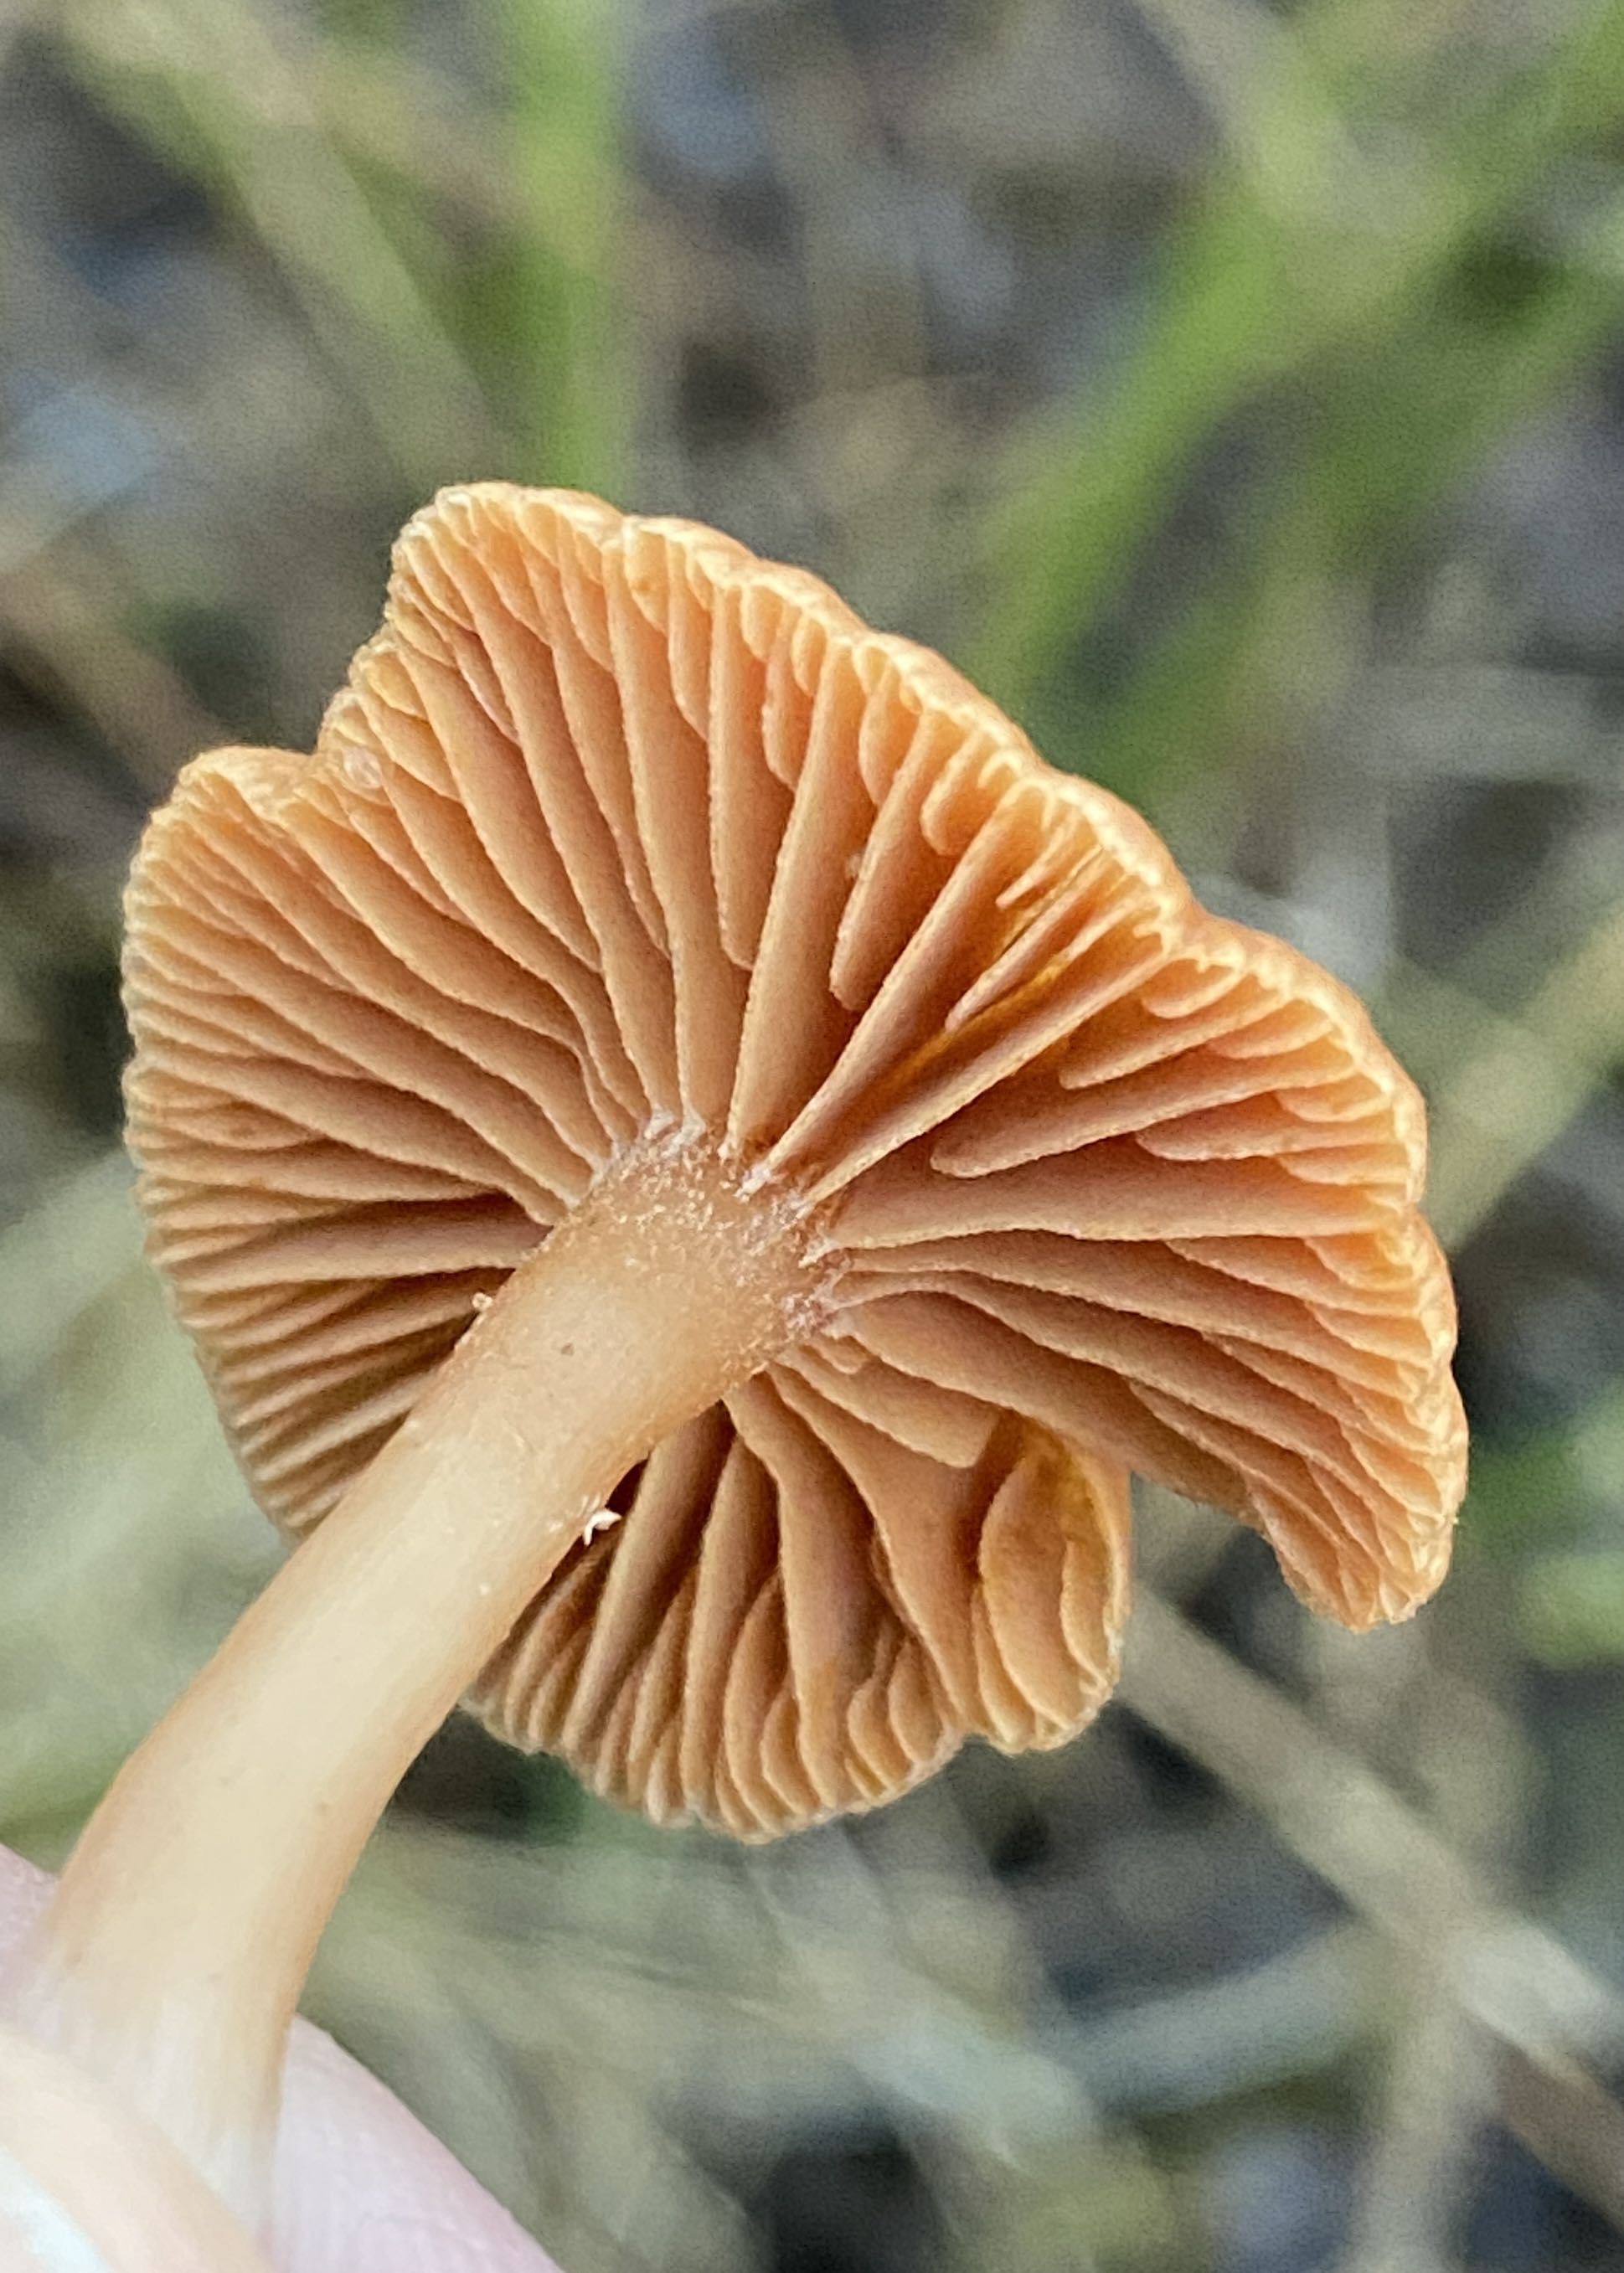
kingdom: Fungi
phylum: Basidiomycota
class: Agaricomycetes
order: Agaricales
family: Tubariaceae
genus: Tubaria
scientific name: Tubaria furfuracea
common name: kliddet fnughat
